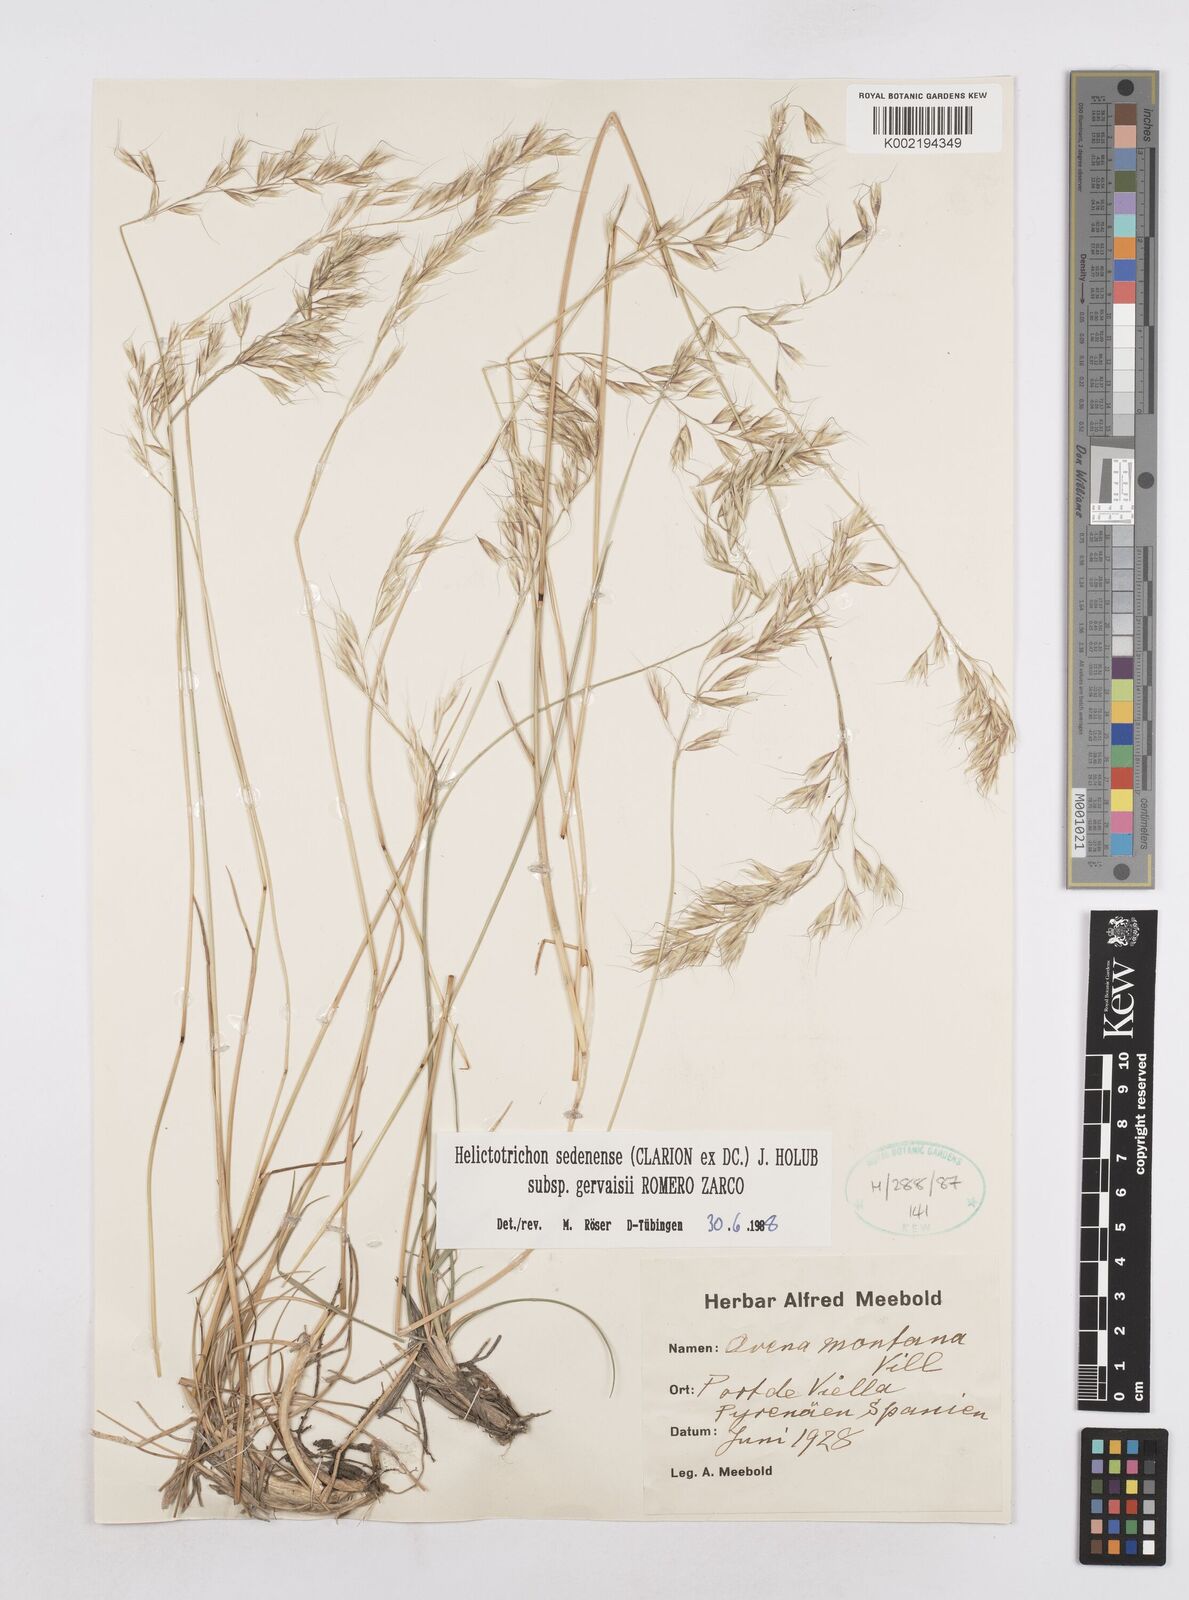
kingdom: Plantae
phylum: Tracheophyta
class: Liliopsida
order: Poales
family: Poaceae
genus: Helictotrichon
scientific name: Helictotrichon sedenense
